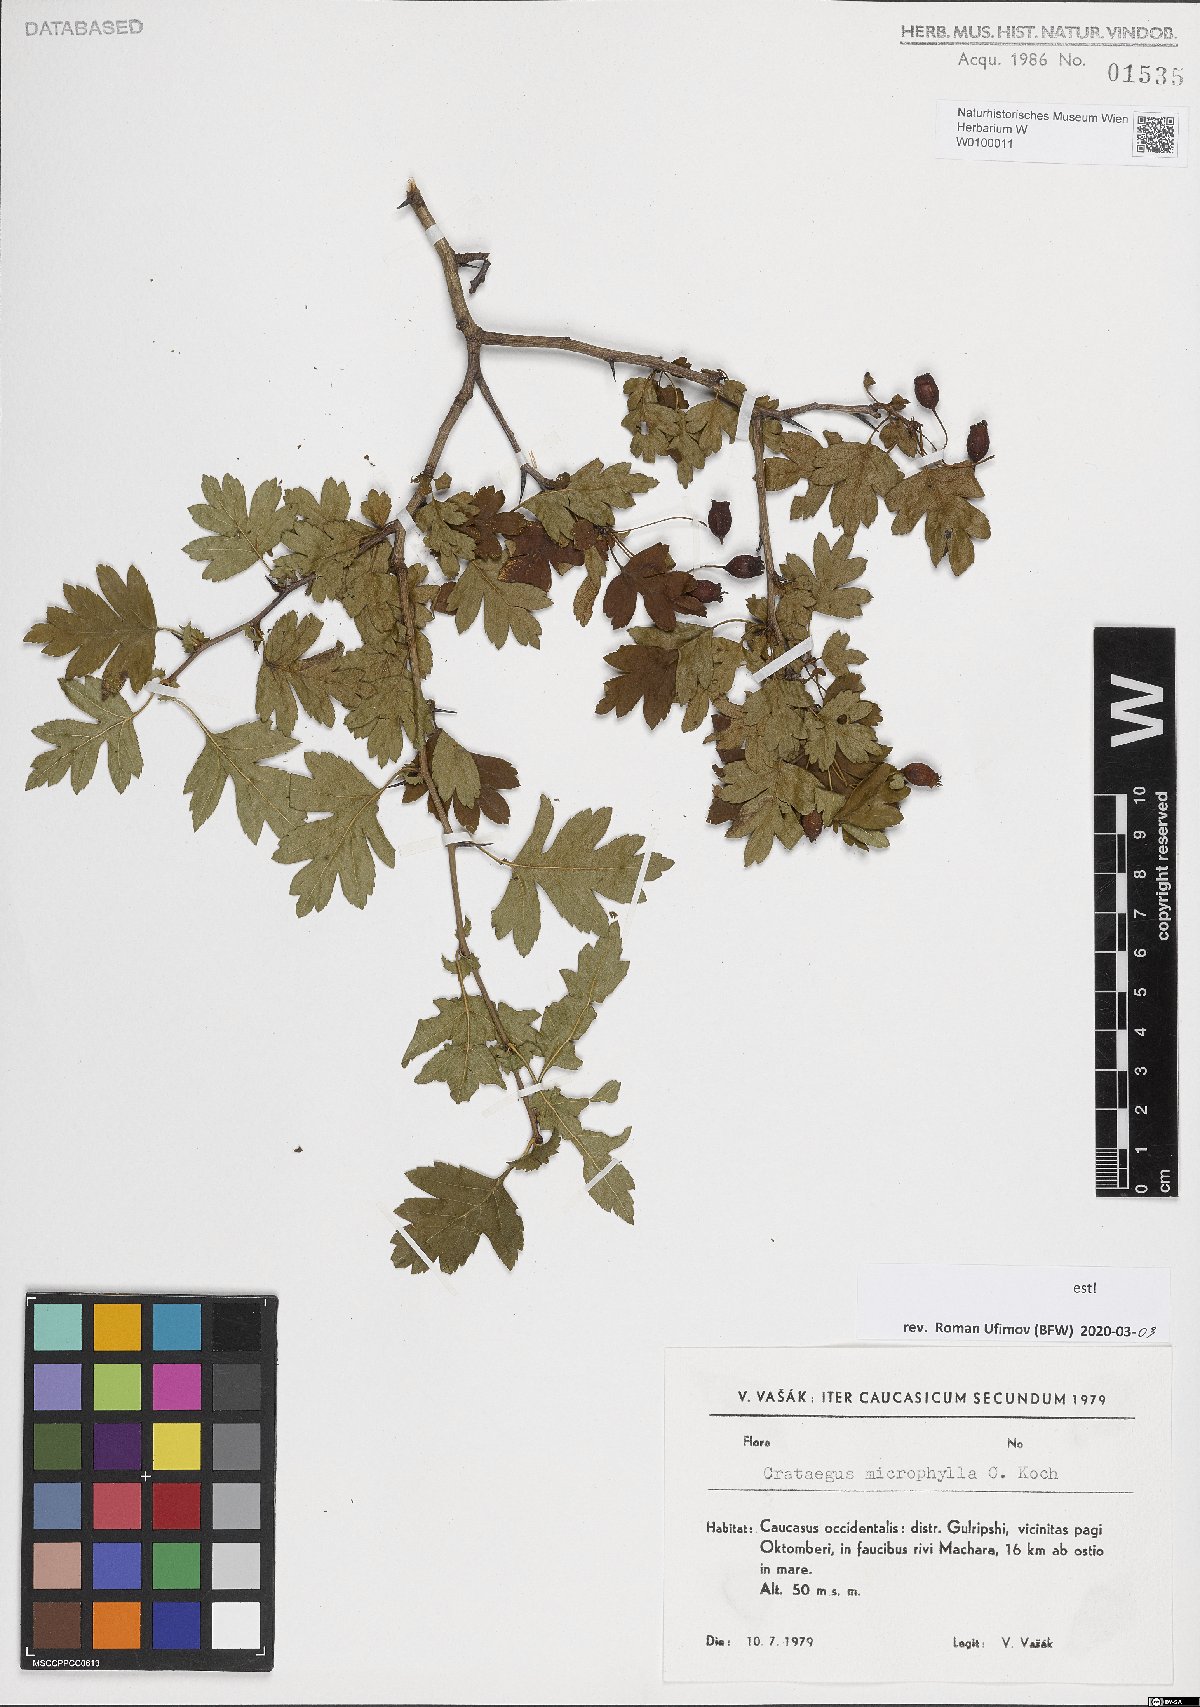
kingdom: Plantae
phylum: Tracheophyta
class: Magnoliopsida
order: Rosales
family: Rosaceae
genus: Crataegus
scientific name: Crataegus microphylla
